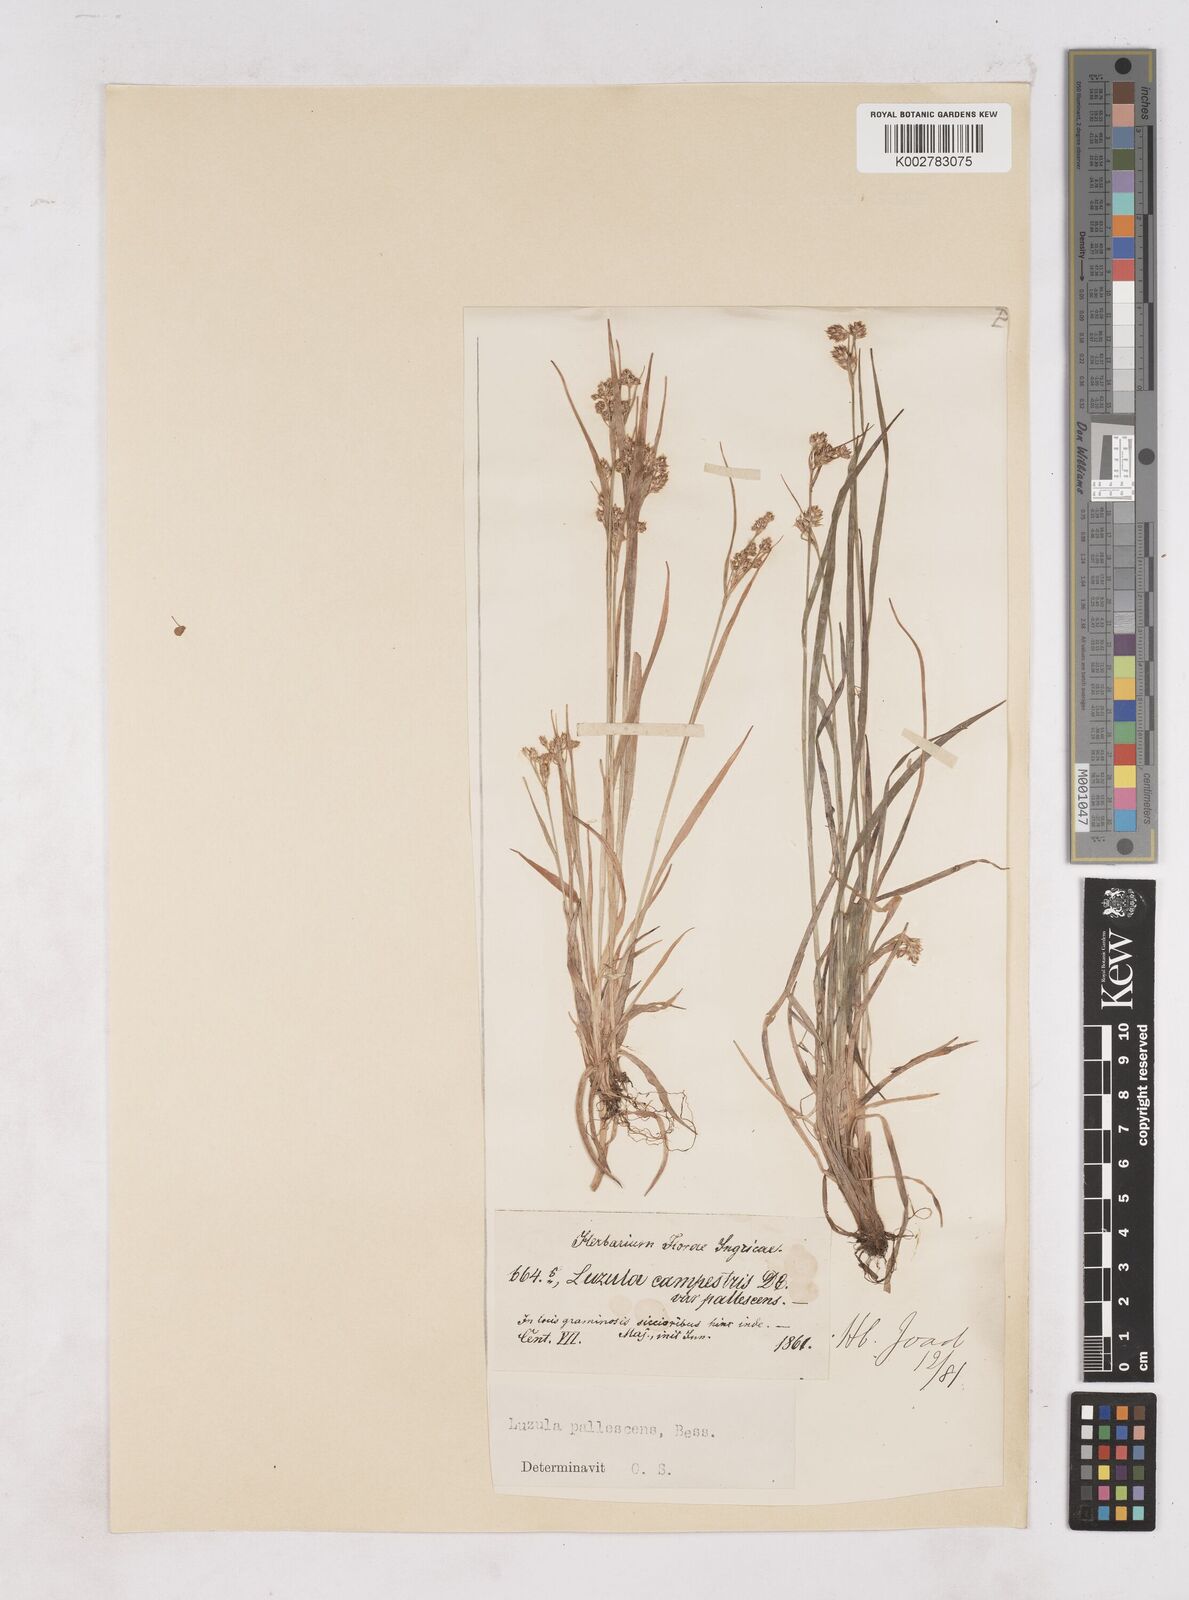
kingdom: Plantae
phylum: Tracheophyta
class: Liliopsida
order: Poales
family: Juncaceae
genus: Luzula
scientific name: Luzula pallescens
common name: Fen wood-rush
